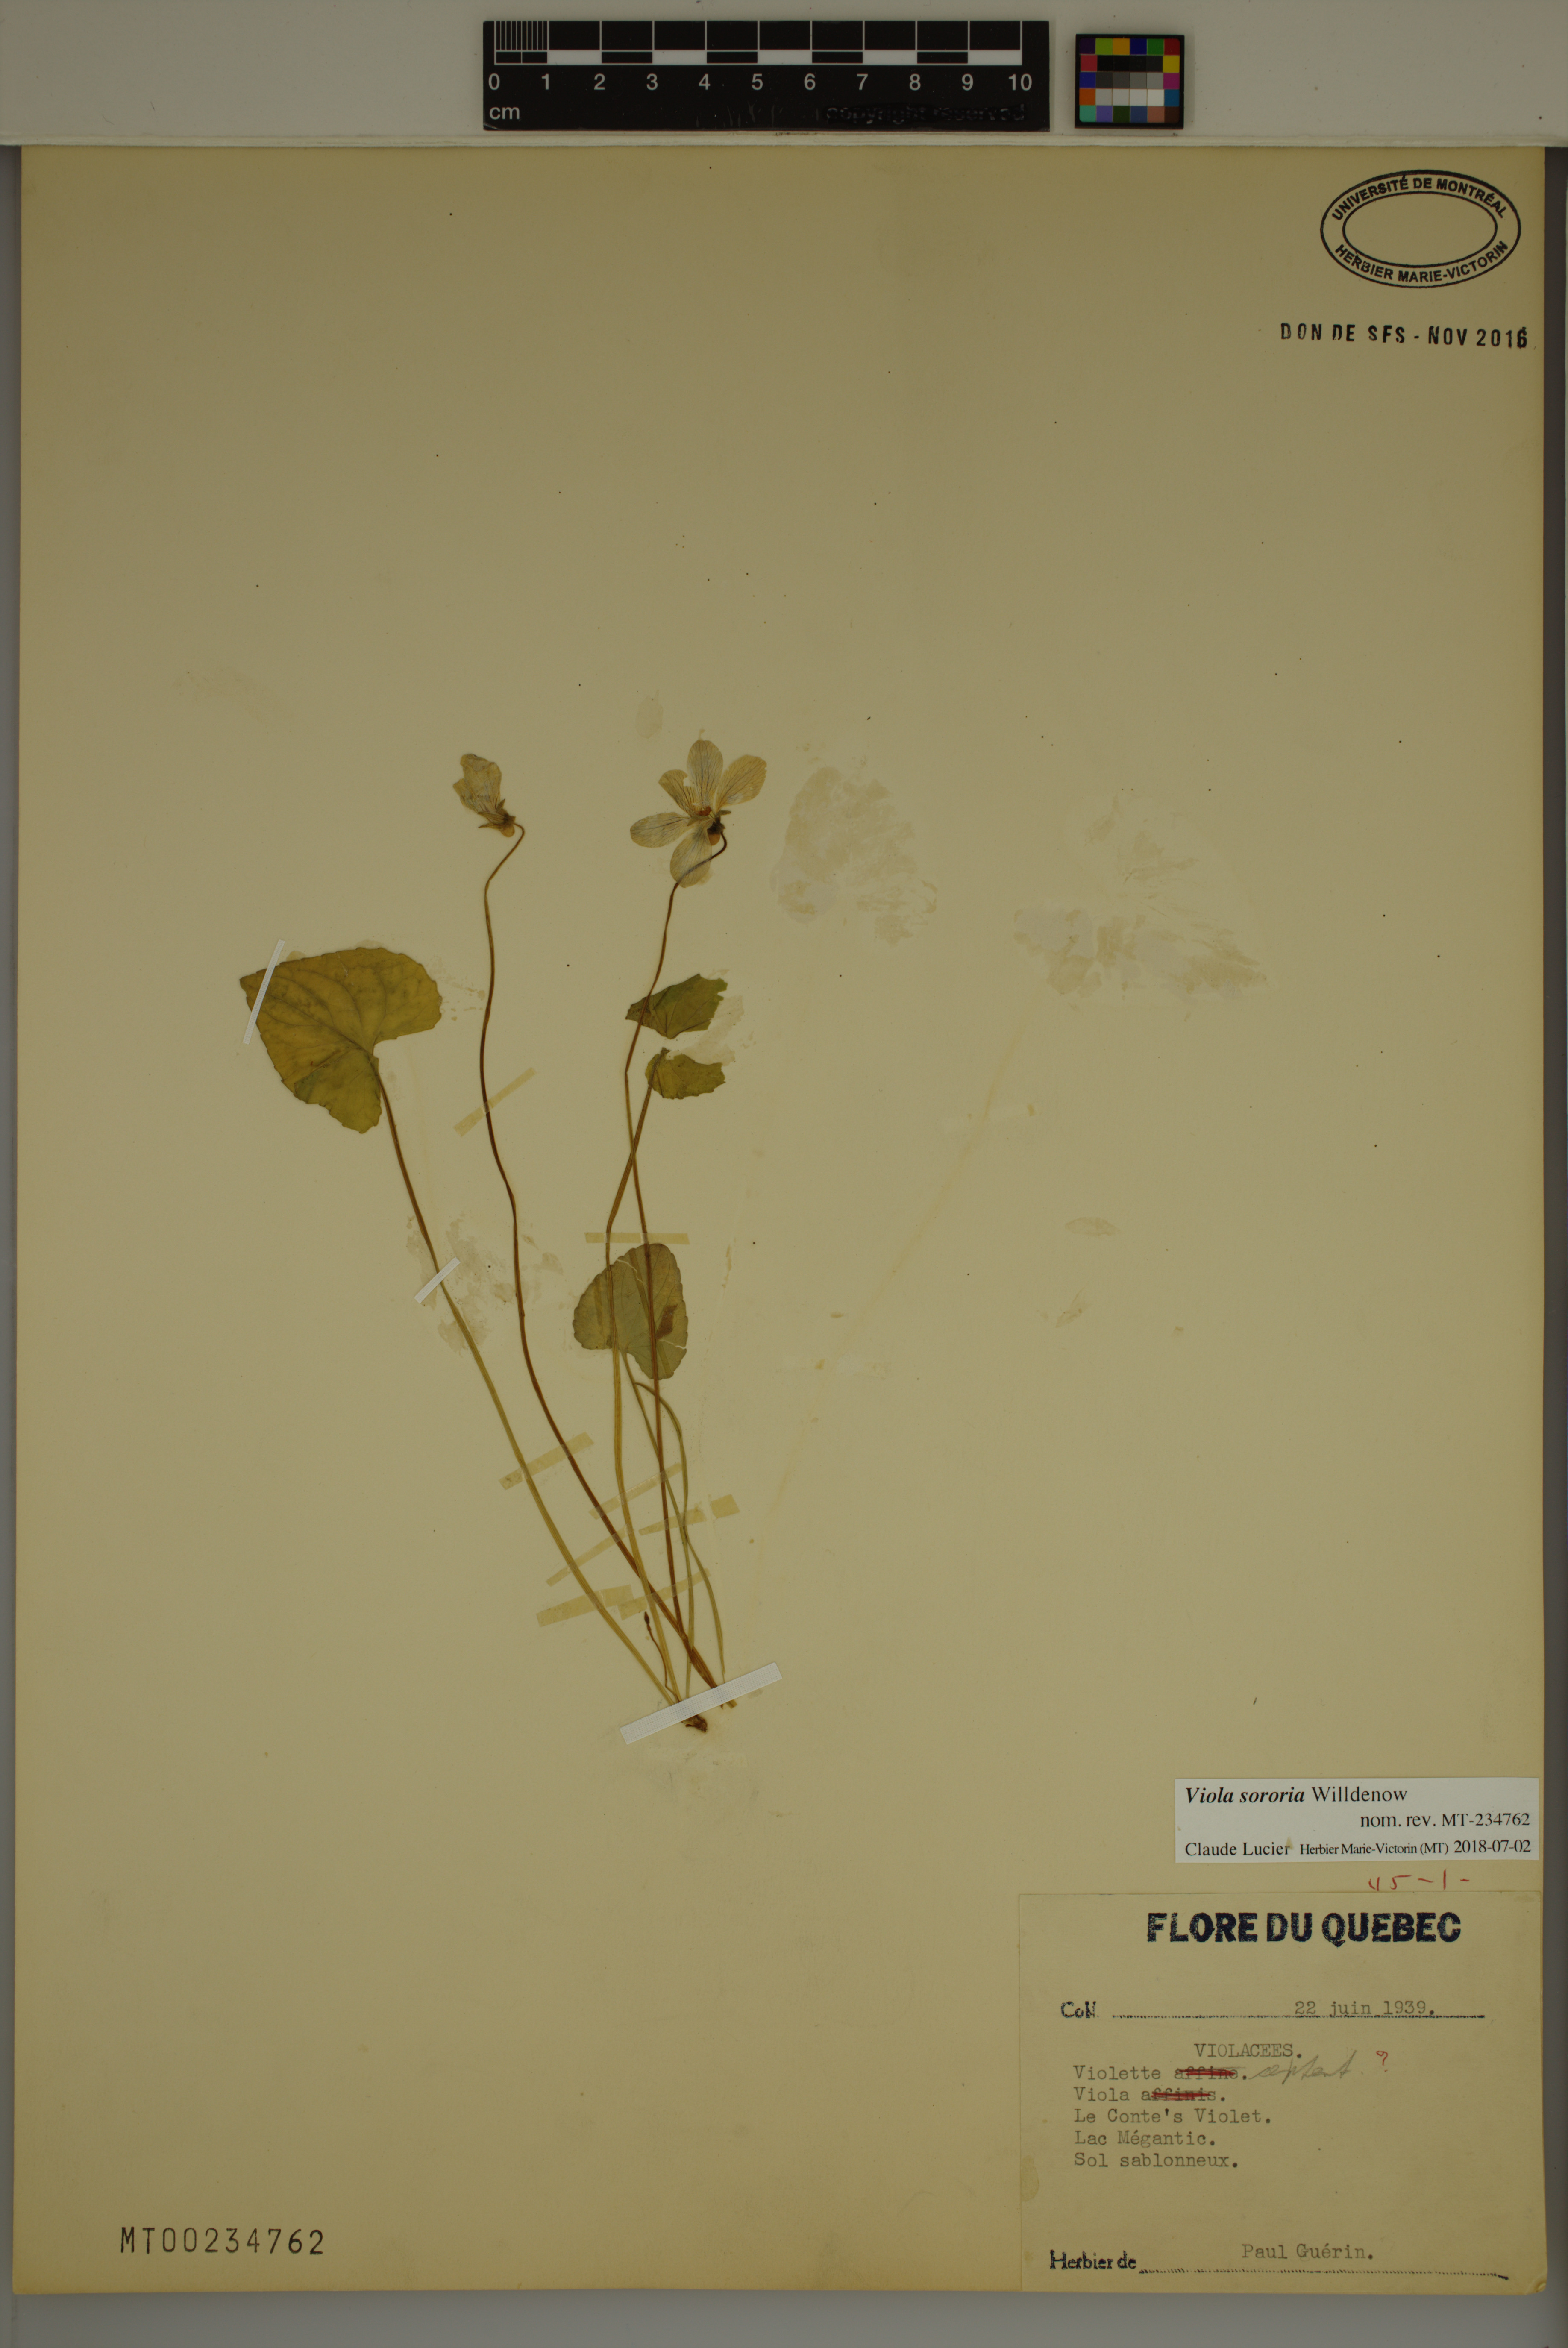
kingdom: Plantae
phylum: Tracheophyta
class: Magnoliopsida
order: Malpighiales
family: Violaceae
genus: Viola
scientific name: Viola sororia
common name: Dooryard violet
